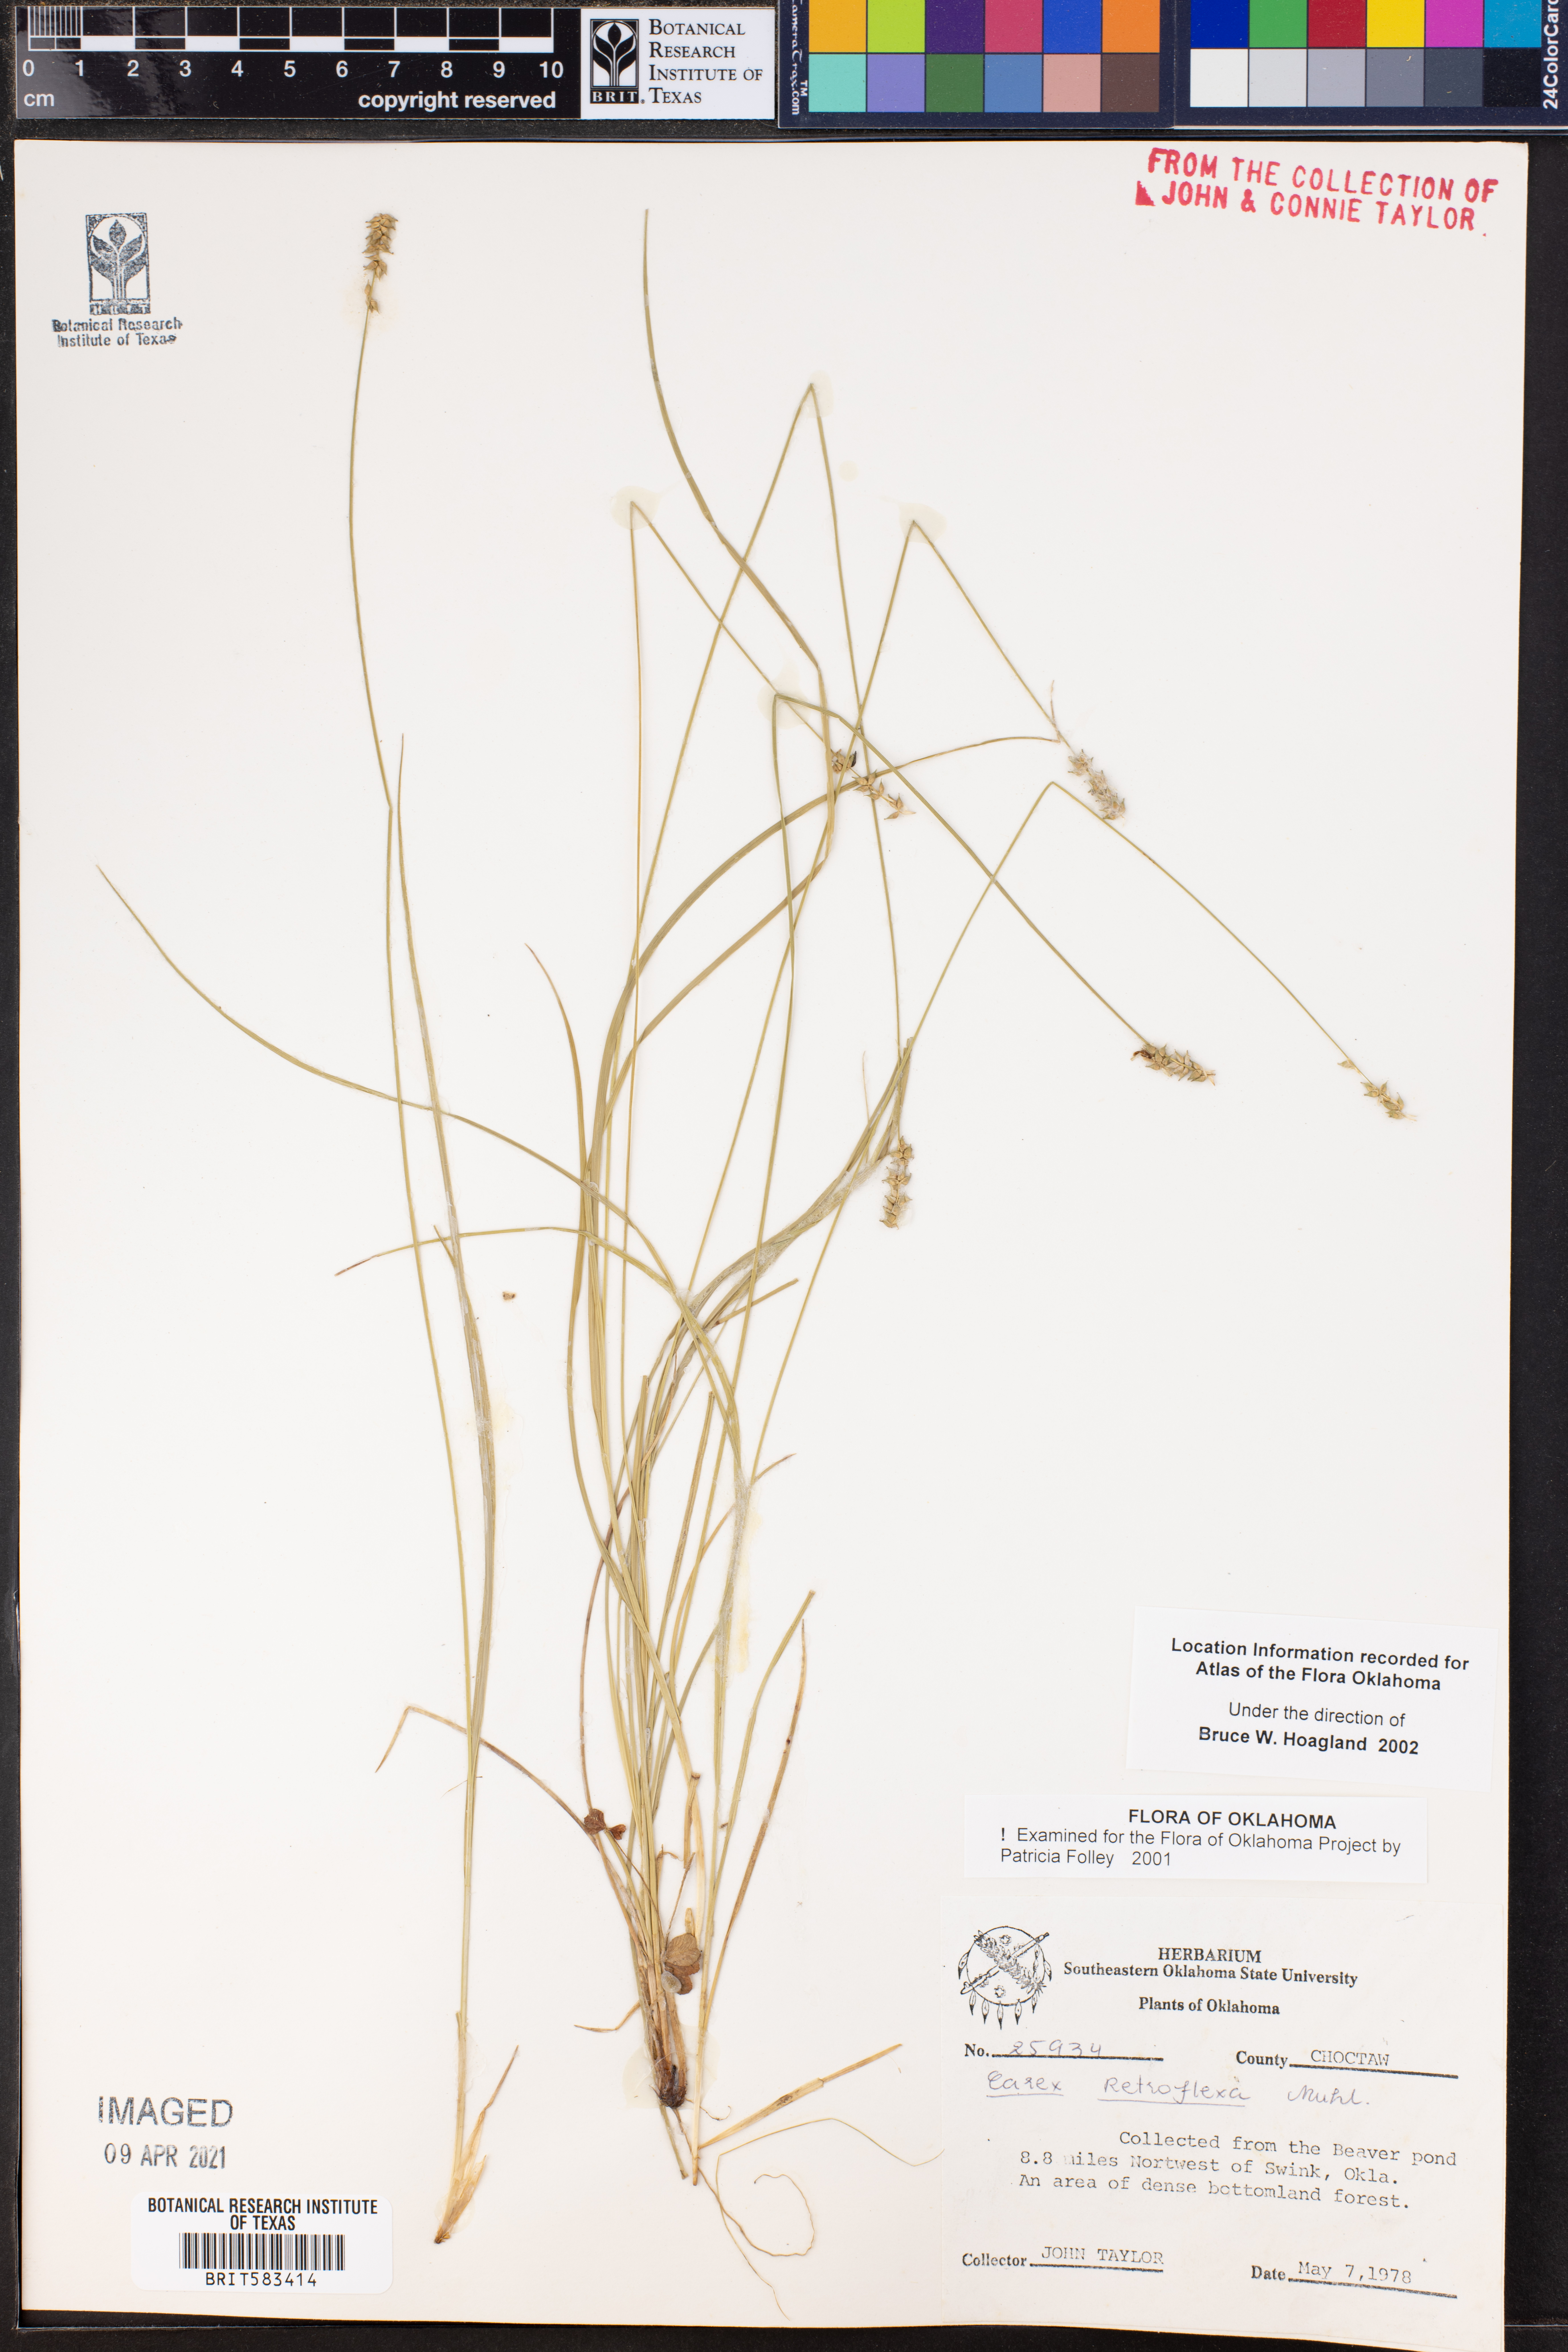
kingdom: Plantae
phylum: Tracheophyta
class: Liliopsida
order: Poales
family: Cyperaceae
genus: Carex
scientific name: Carex retroflexa
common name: Reflexed sedge
